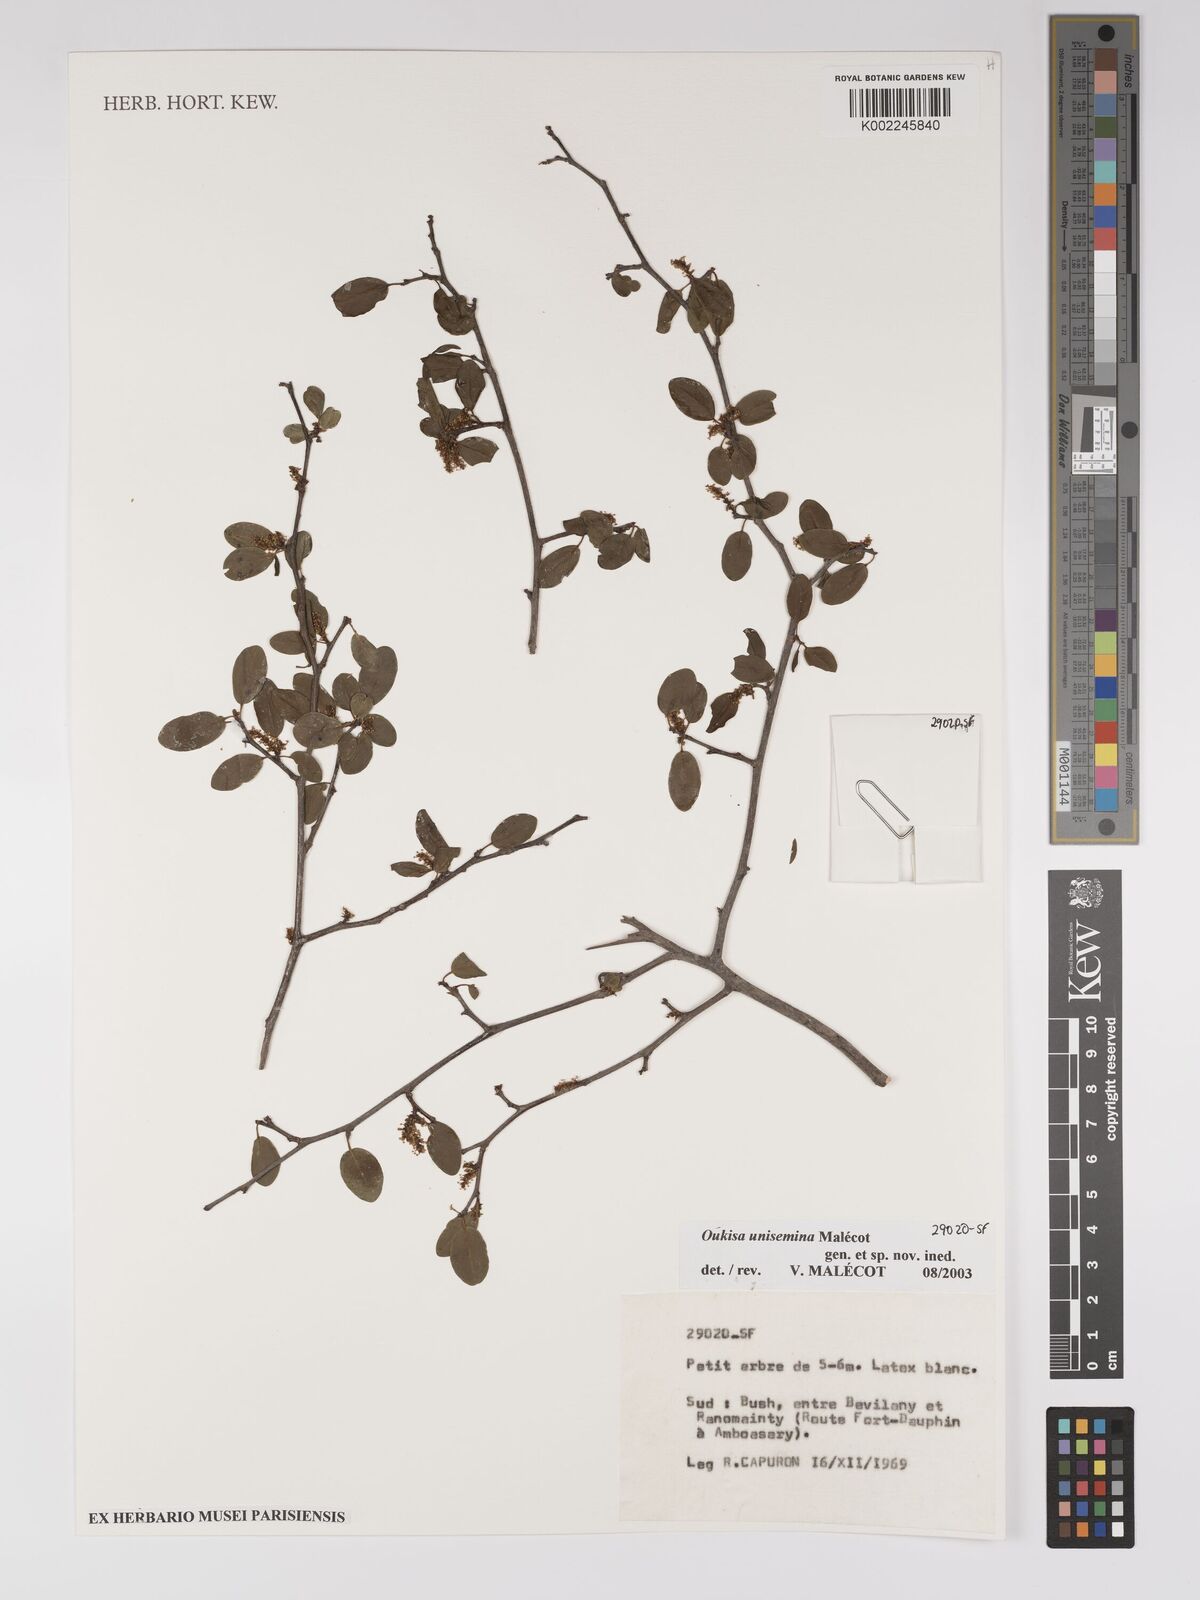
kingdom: Plantae
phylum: Tracheophyta
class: Magnoliopsida
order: Malpighiales
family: Euphorbiaceae
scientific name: Euphorbiaceae
